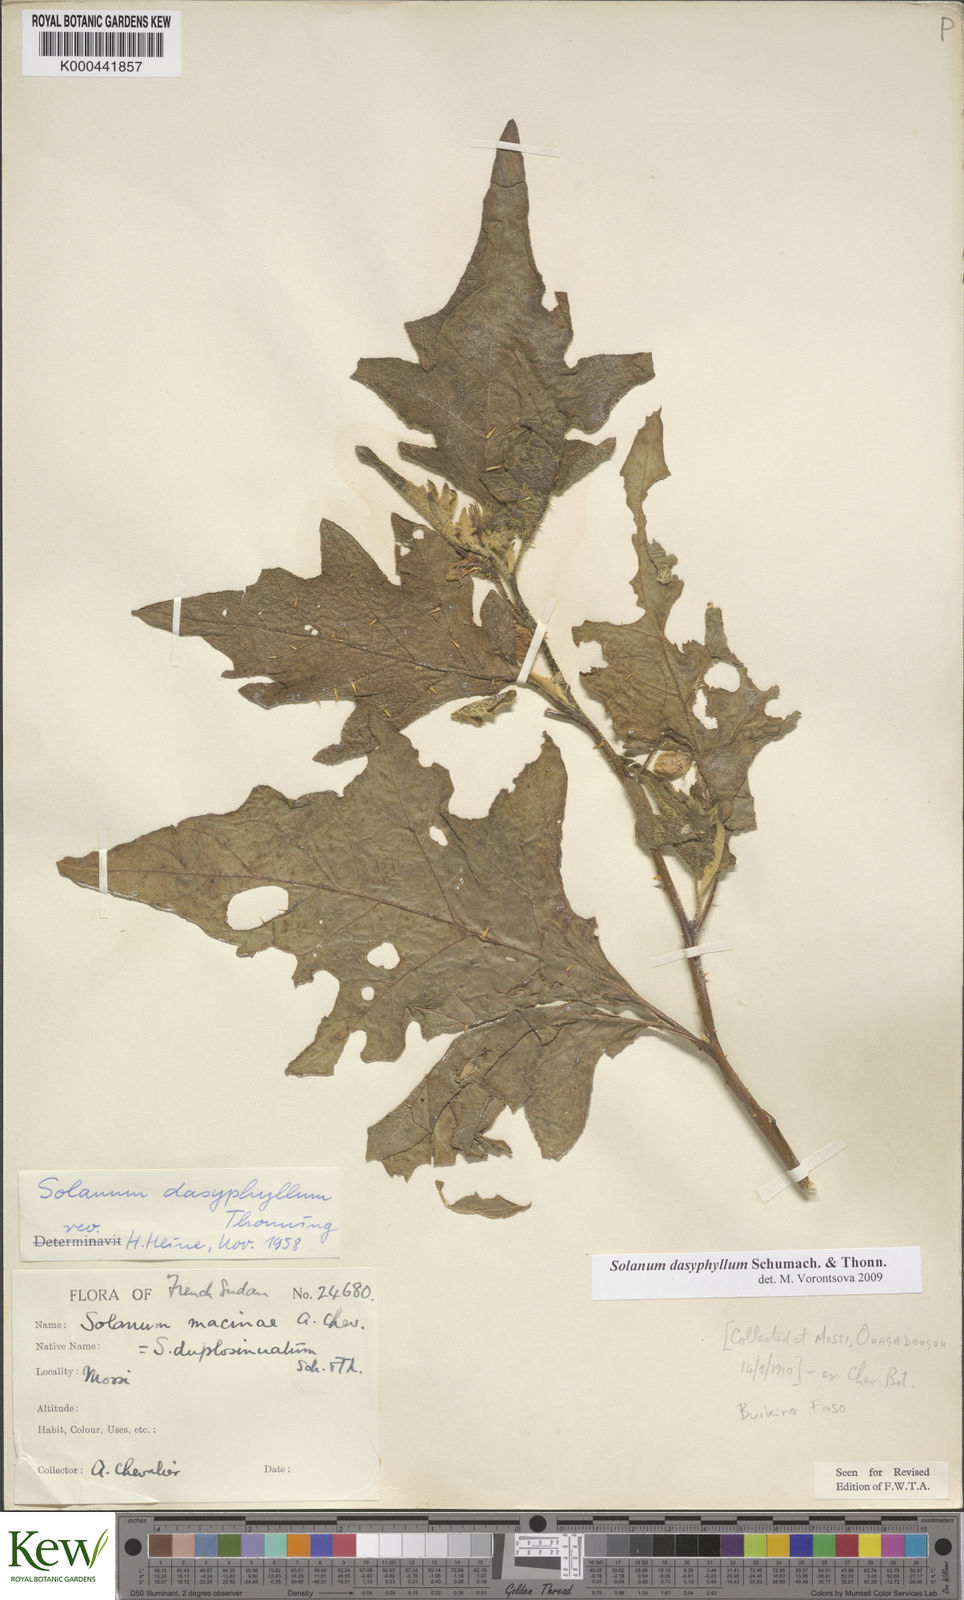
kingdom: Plantae
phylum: Tracheophyta
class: Magnoliopsida
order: Solanales
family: Solanaceae
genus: Solanum
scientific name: Solanum dasyphyllum
